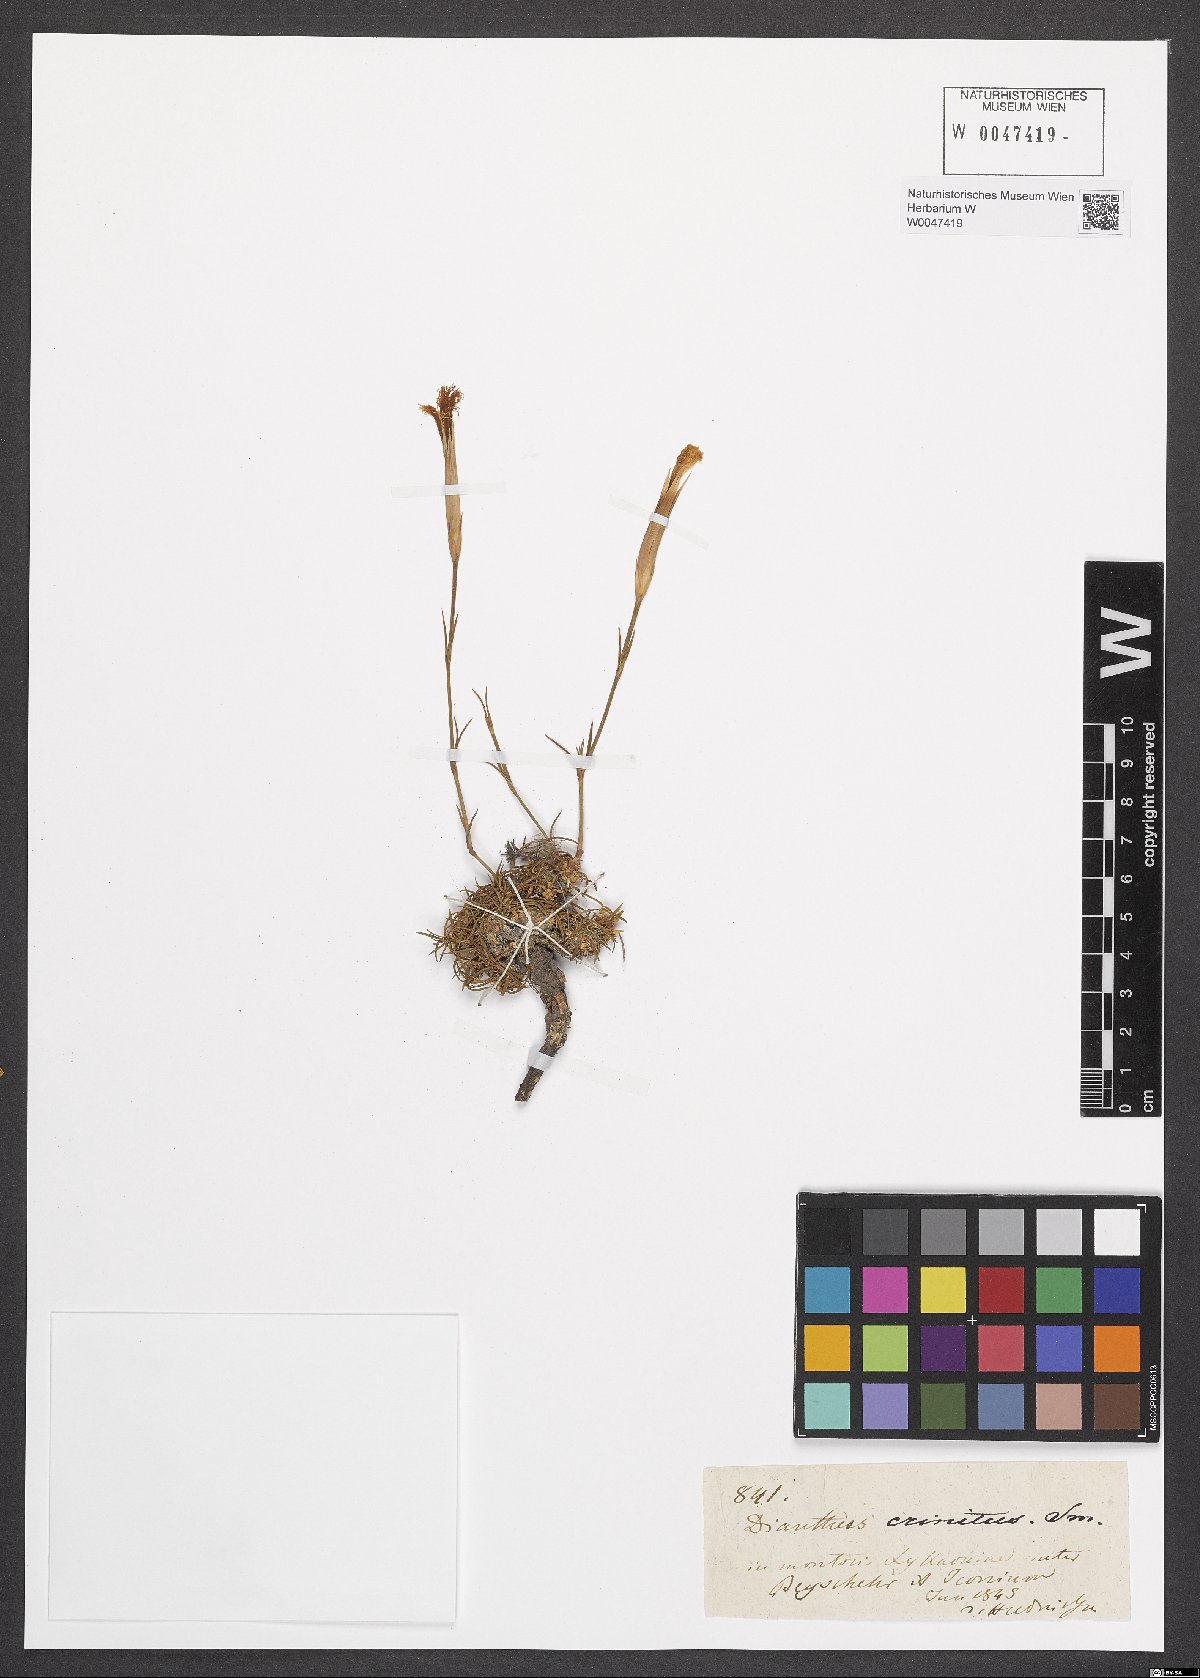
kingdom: Plantae
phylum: Tracheophyta
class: Magnoliopsida
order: Caryophyllales
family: Caryophyllaceae
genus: Dianthus
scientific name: Dianthus crinitus
